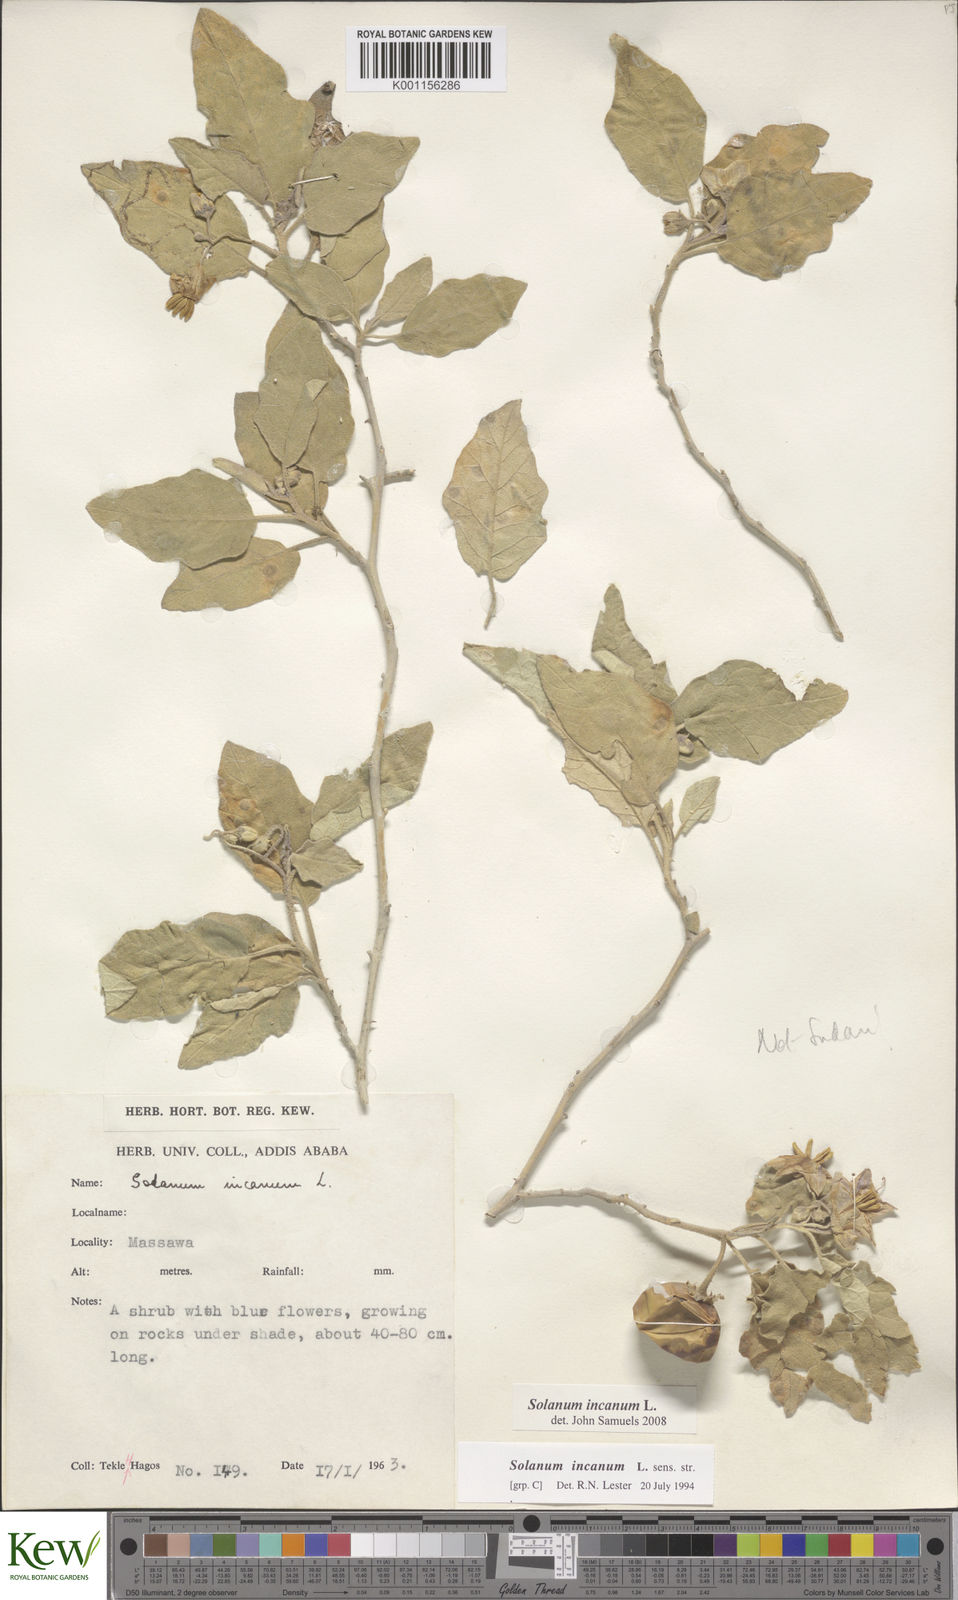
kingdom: Plantae
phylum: Tracheophyta
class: Magnoliopsida
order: Solanales
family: Solanaceae
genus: Solanum
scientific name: Solanum incanum
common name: Bitter apple
